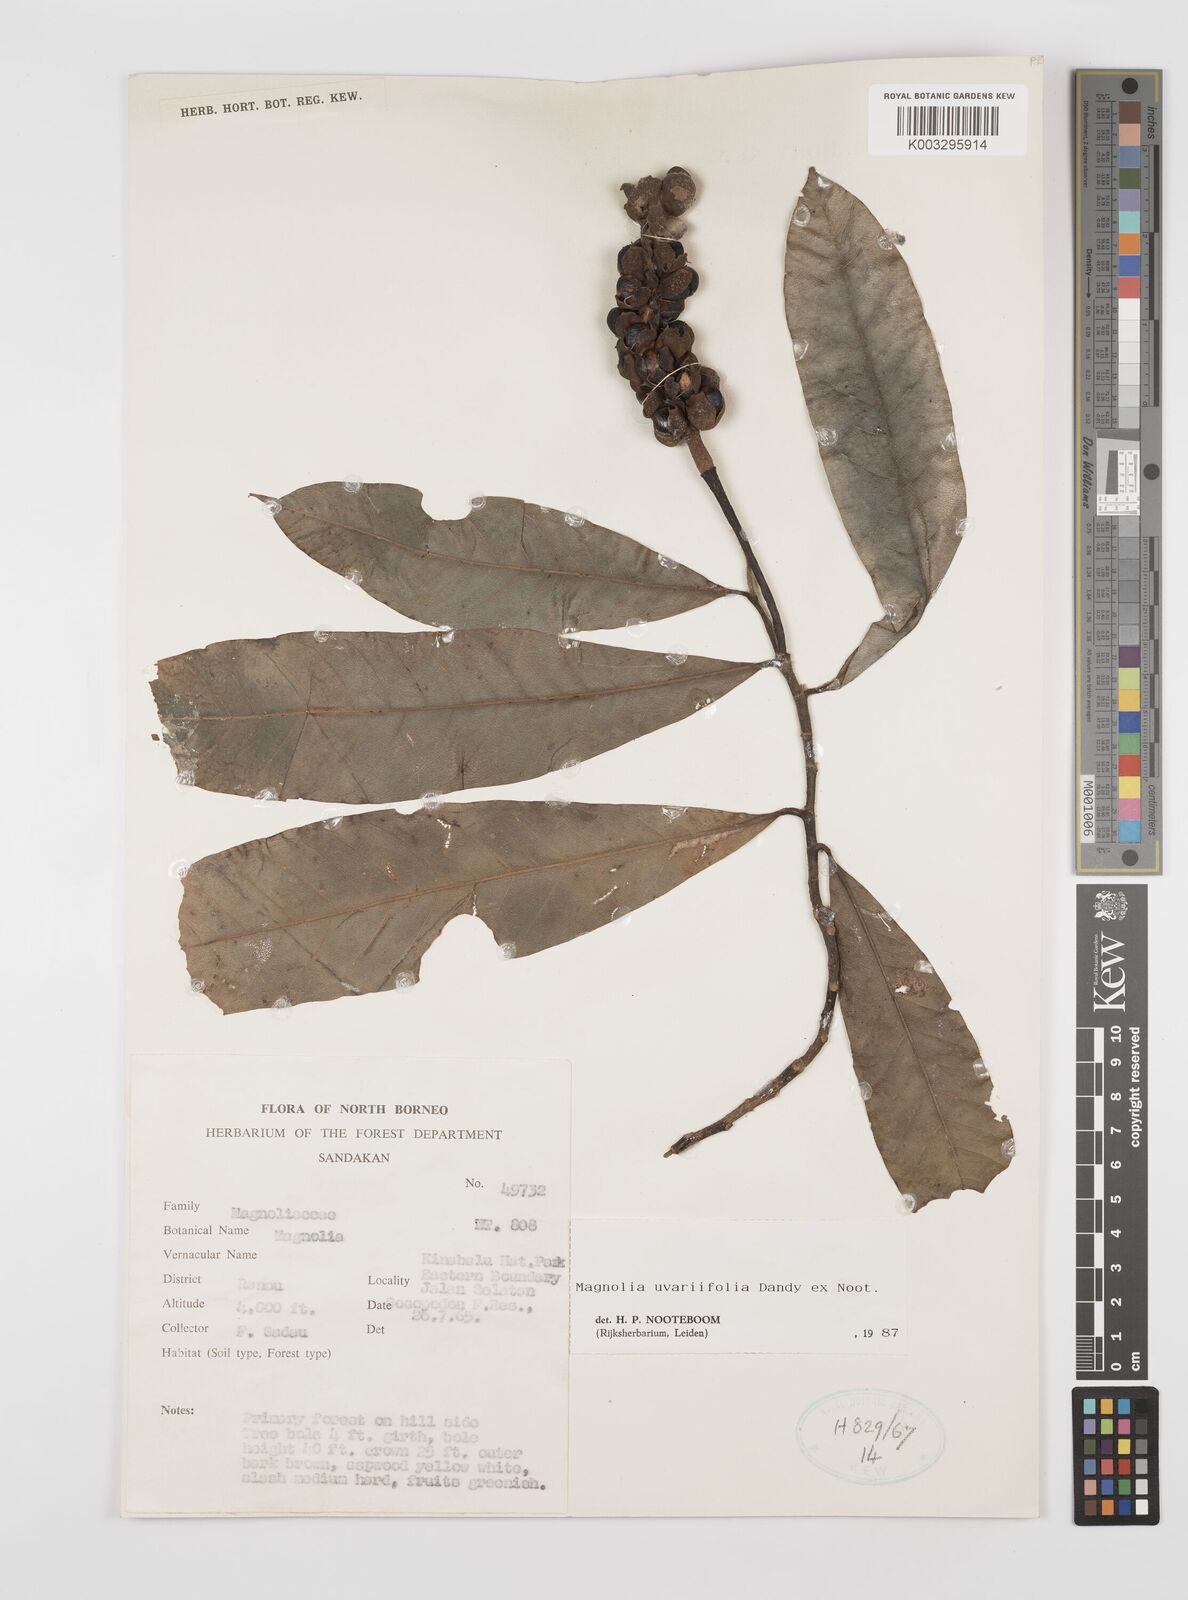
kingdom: Plantae
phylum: Tracheophyta
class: Magnoliopsida
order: Magnoliales
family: Magnoliaceae
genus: Magnolia
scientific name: Magnolia macklottii
